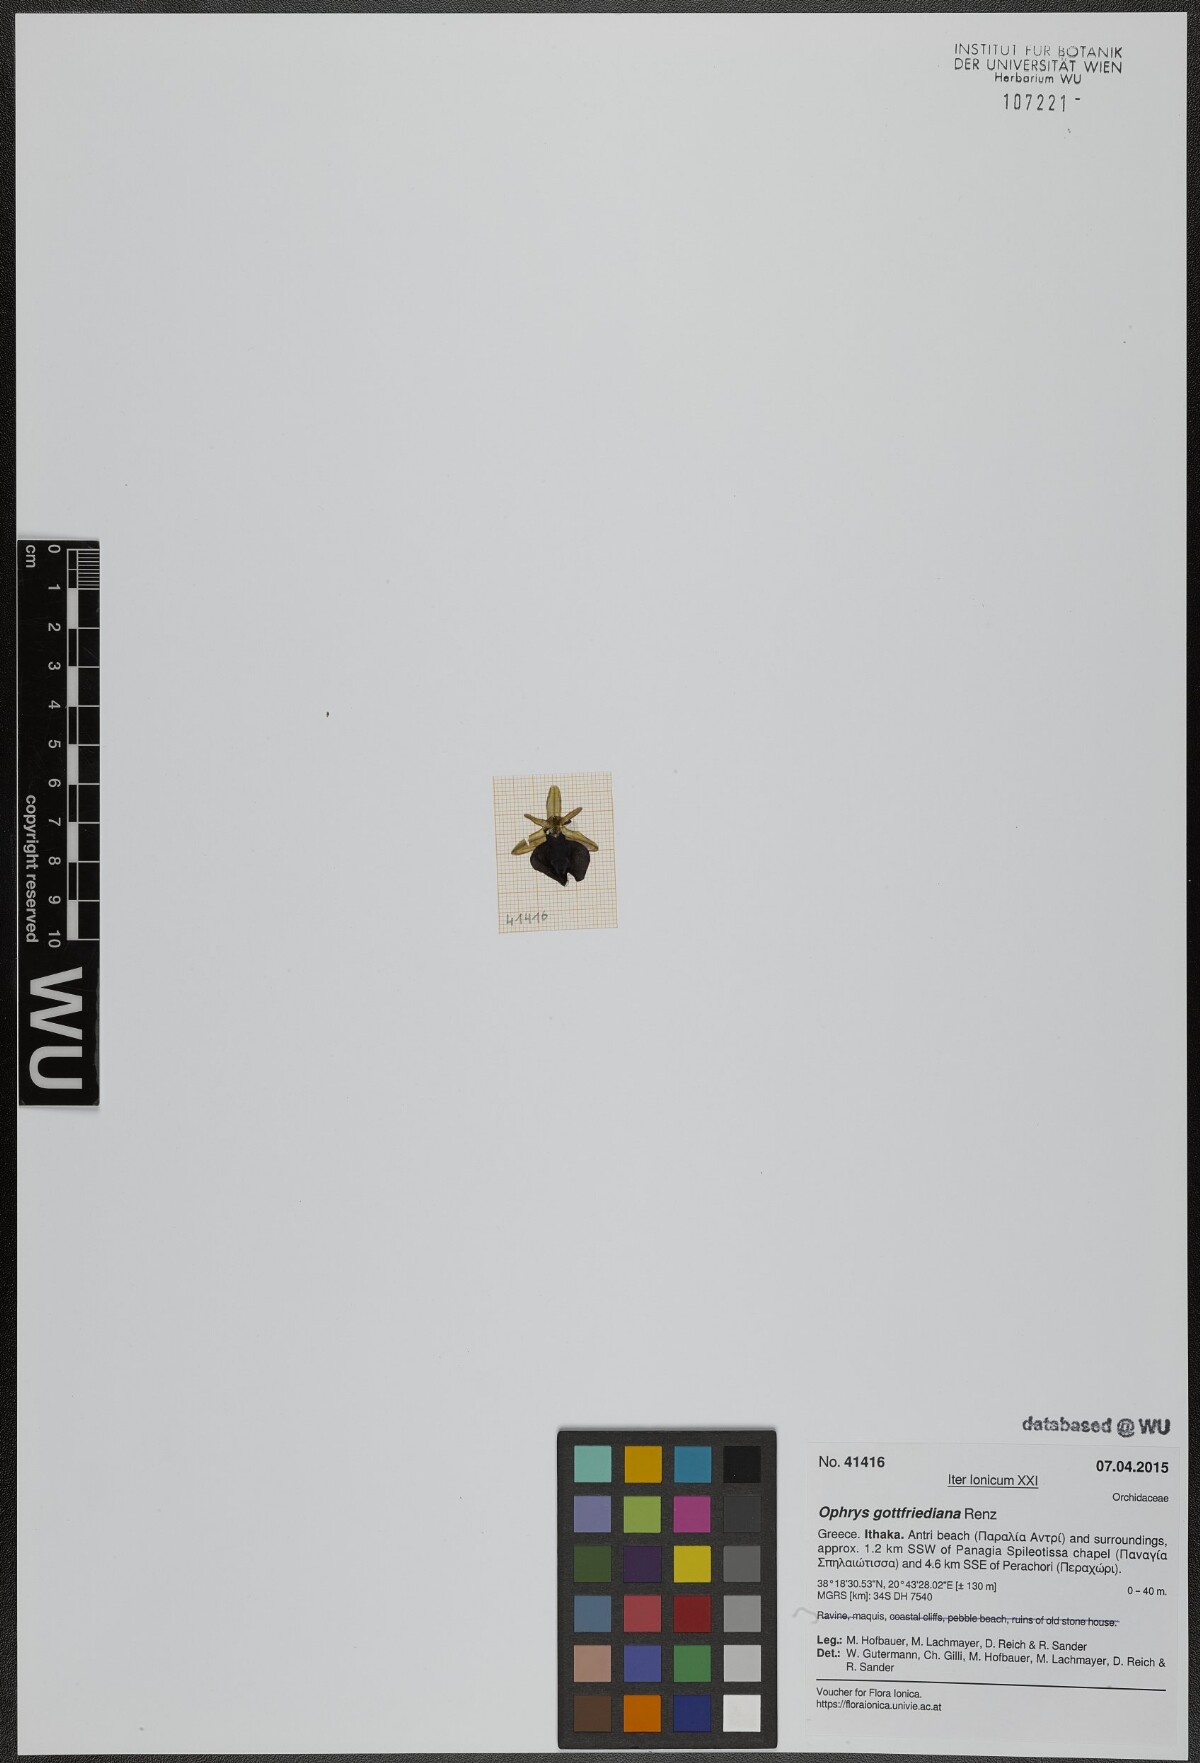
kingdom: Plantae
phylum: Tracheophyta
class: Liliopsida
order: Asparagales
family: Orchidaceae
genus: Ophrys
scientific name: Ophrys ferrum-equinum
